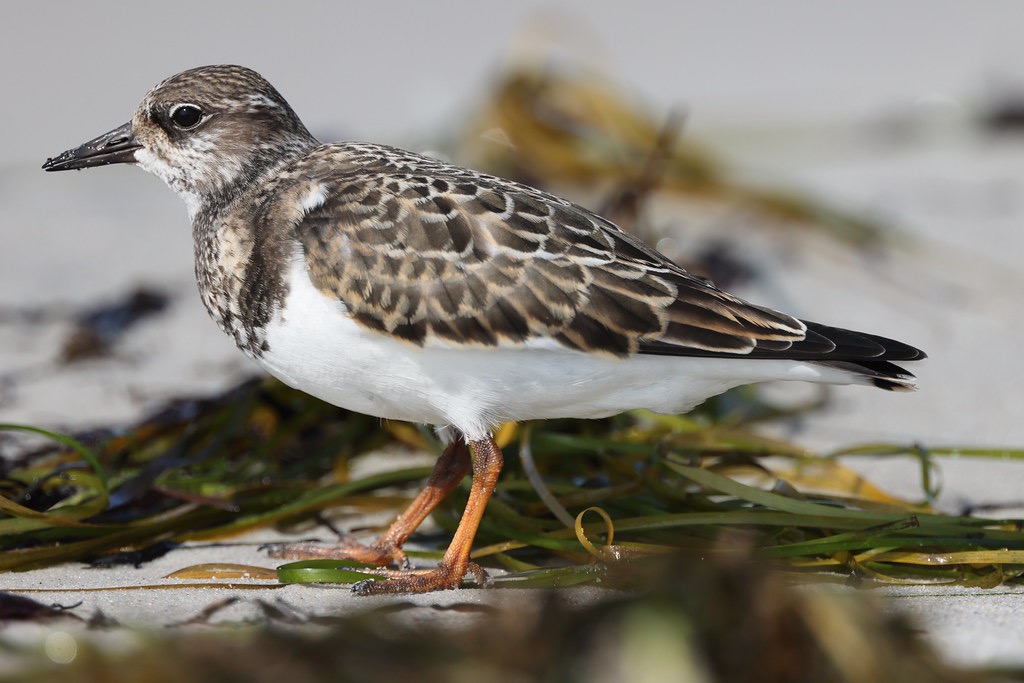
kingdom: Animalia
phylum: Chordata
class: Aves
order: Charadriiformes
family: Scolopacidae
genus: Arenaria
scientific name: Arenaria interpres
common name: Stenvender
